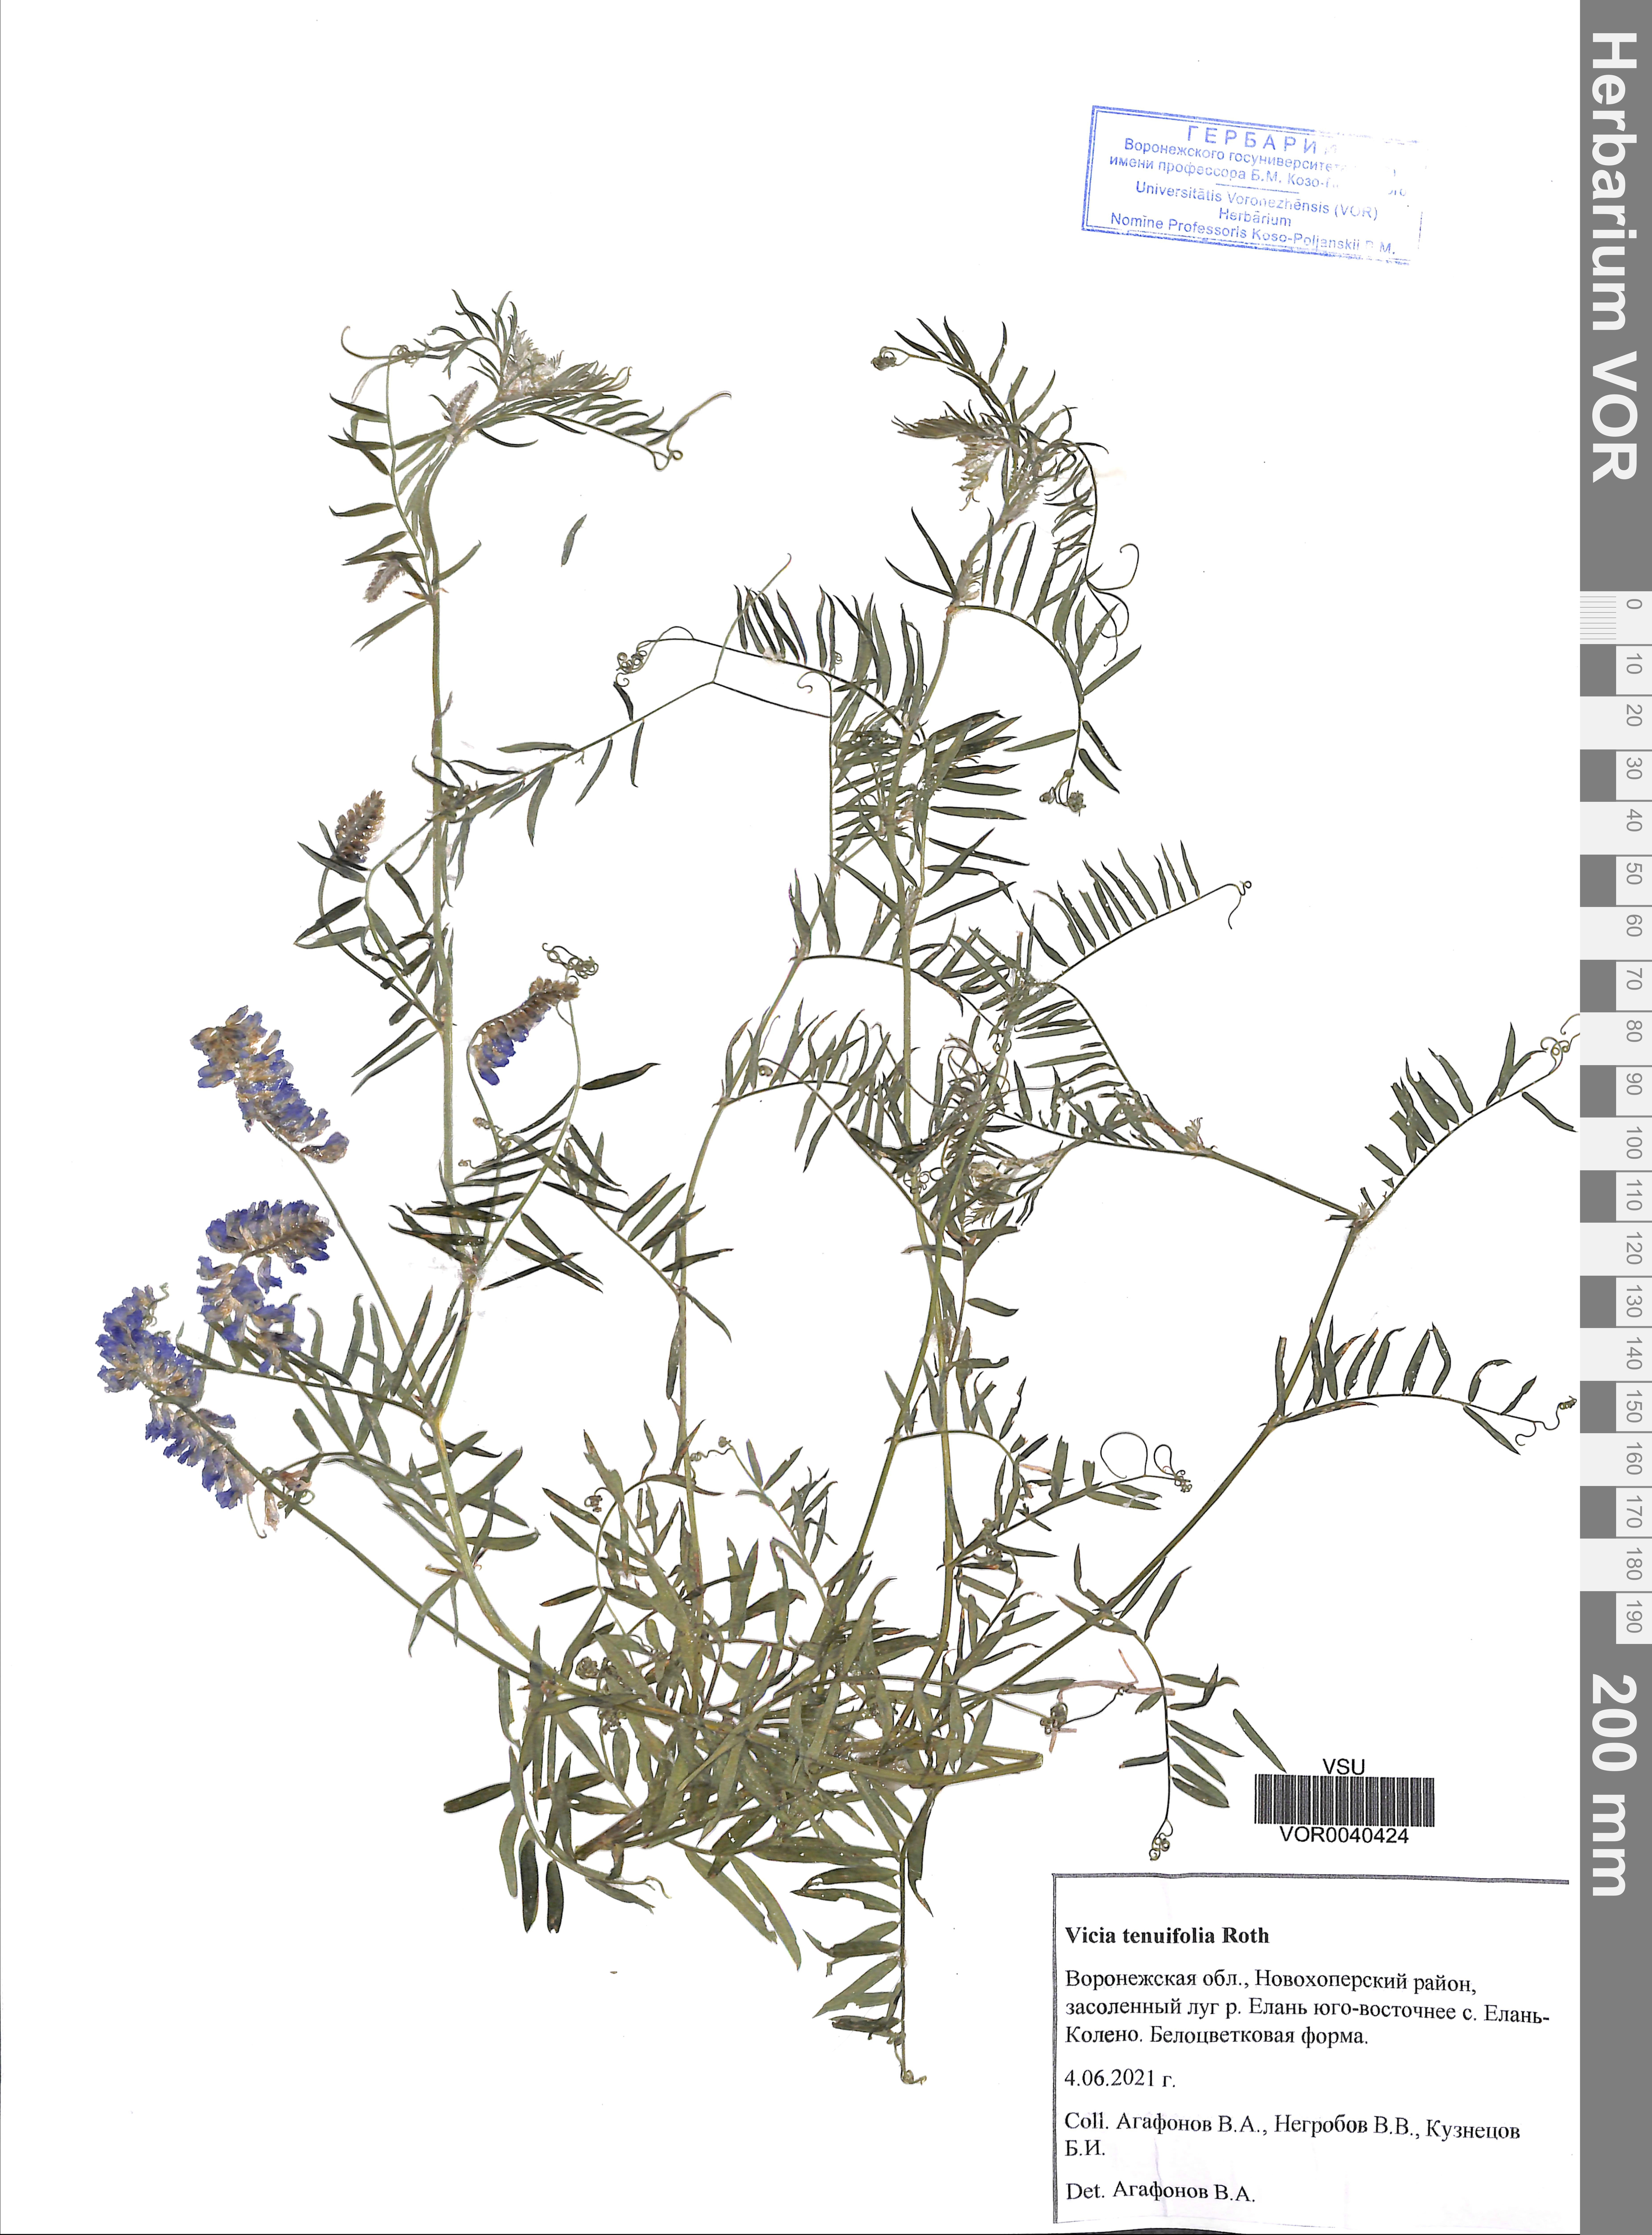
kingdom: Plantae
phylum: Tracheophyta
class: Magnoliopsida
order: Fabales
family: Fabaceae
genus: Vicia
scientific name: Vicia tenuifolia
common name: Fine-leaved vetch
